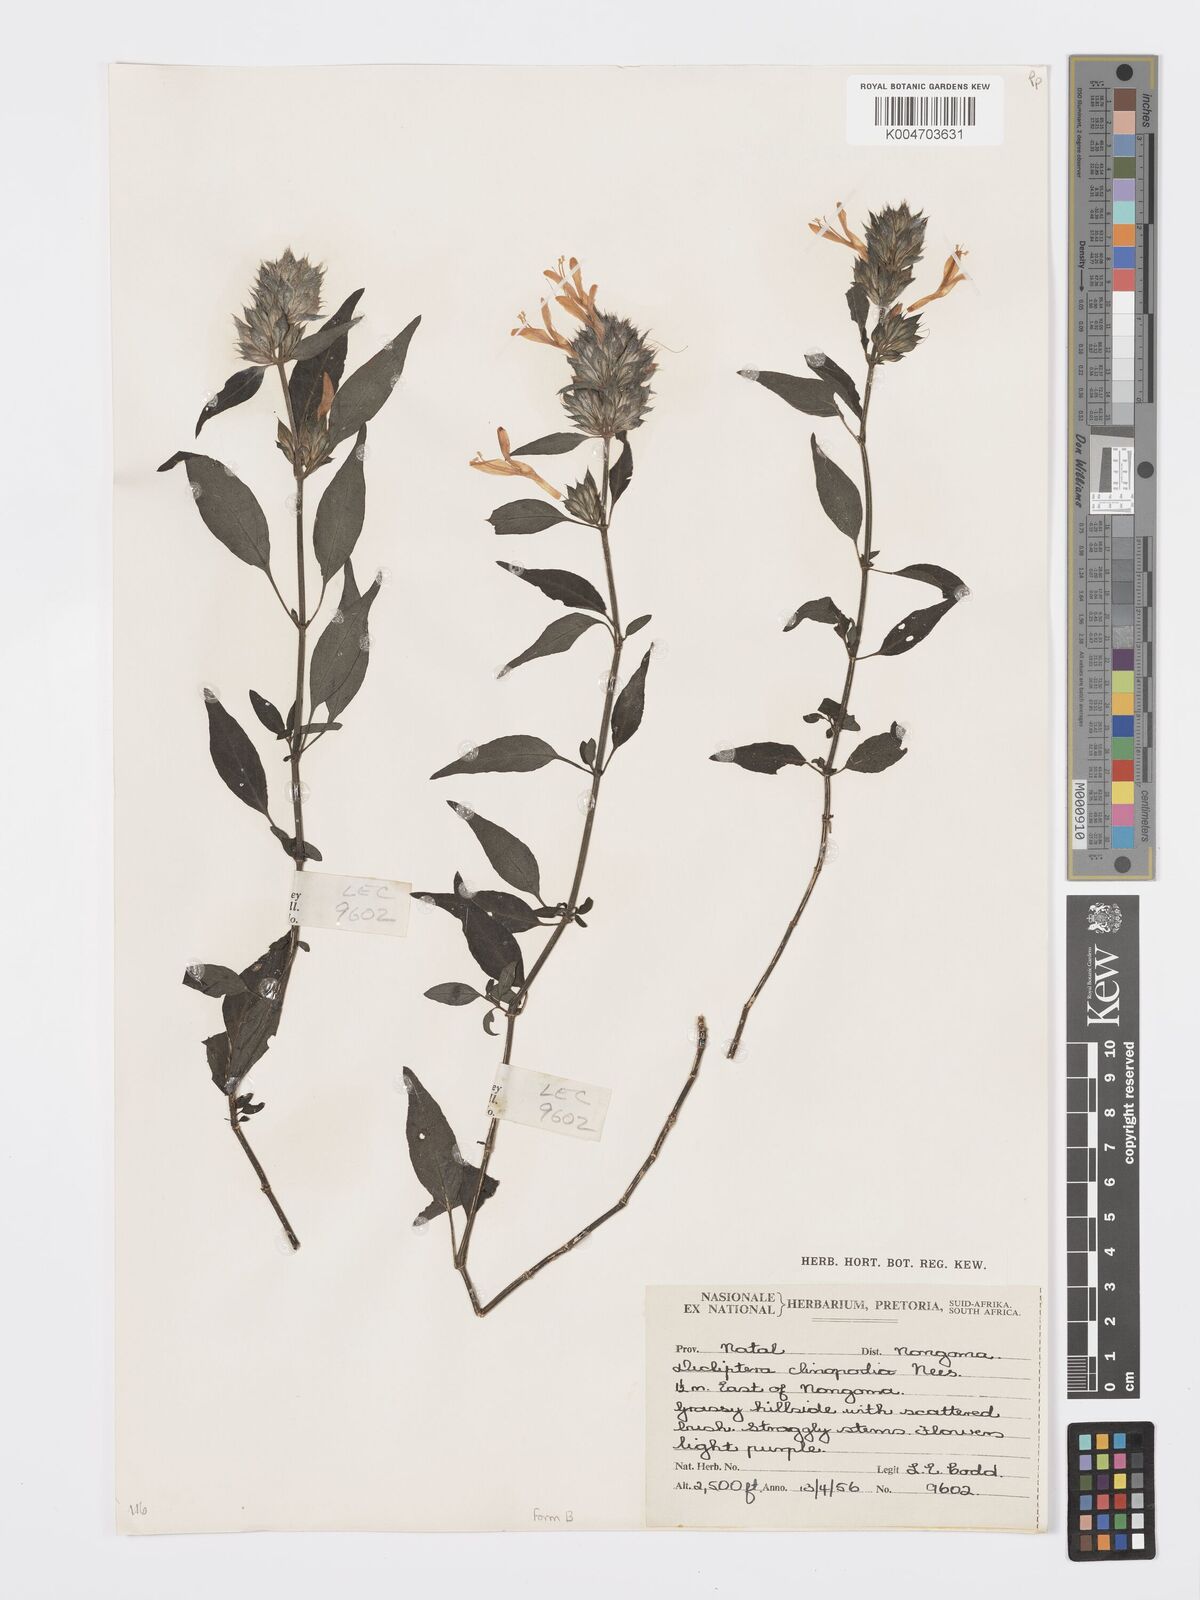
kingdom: Plantae
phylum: Tracheophyta
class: Magnoliopsida
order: Lamiales
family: Acanthaceae
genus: Dicliptera
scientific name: Dicliptera clinopodia
